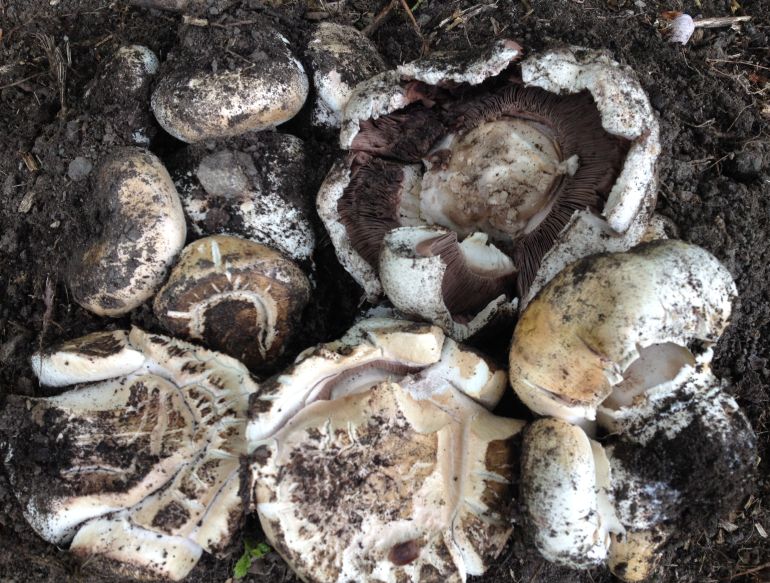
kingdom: Fungi
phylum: Basidiomycota
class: Agaricomycetes
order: Agaricales
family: Agaricaceae
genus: Agaricus
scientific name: Agaricus subperonatus
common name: knippe-champignon
